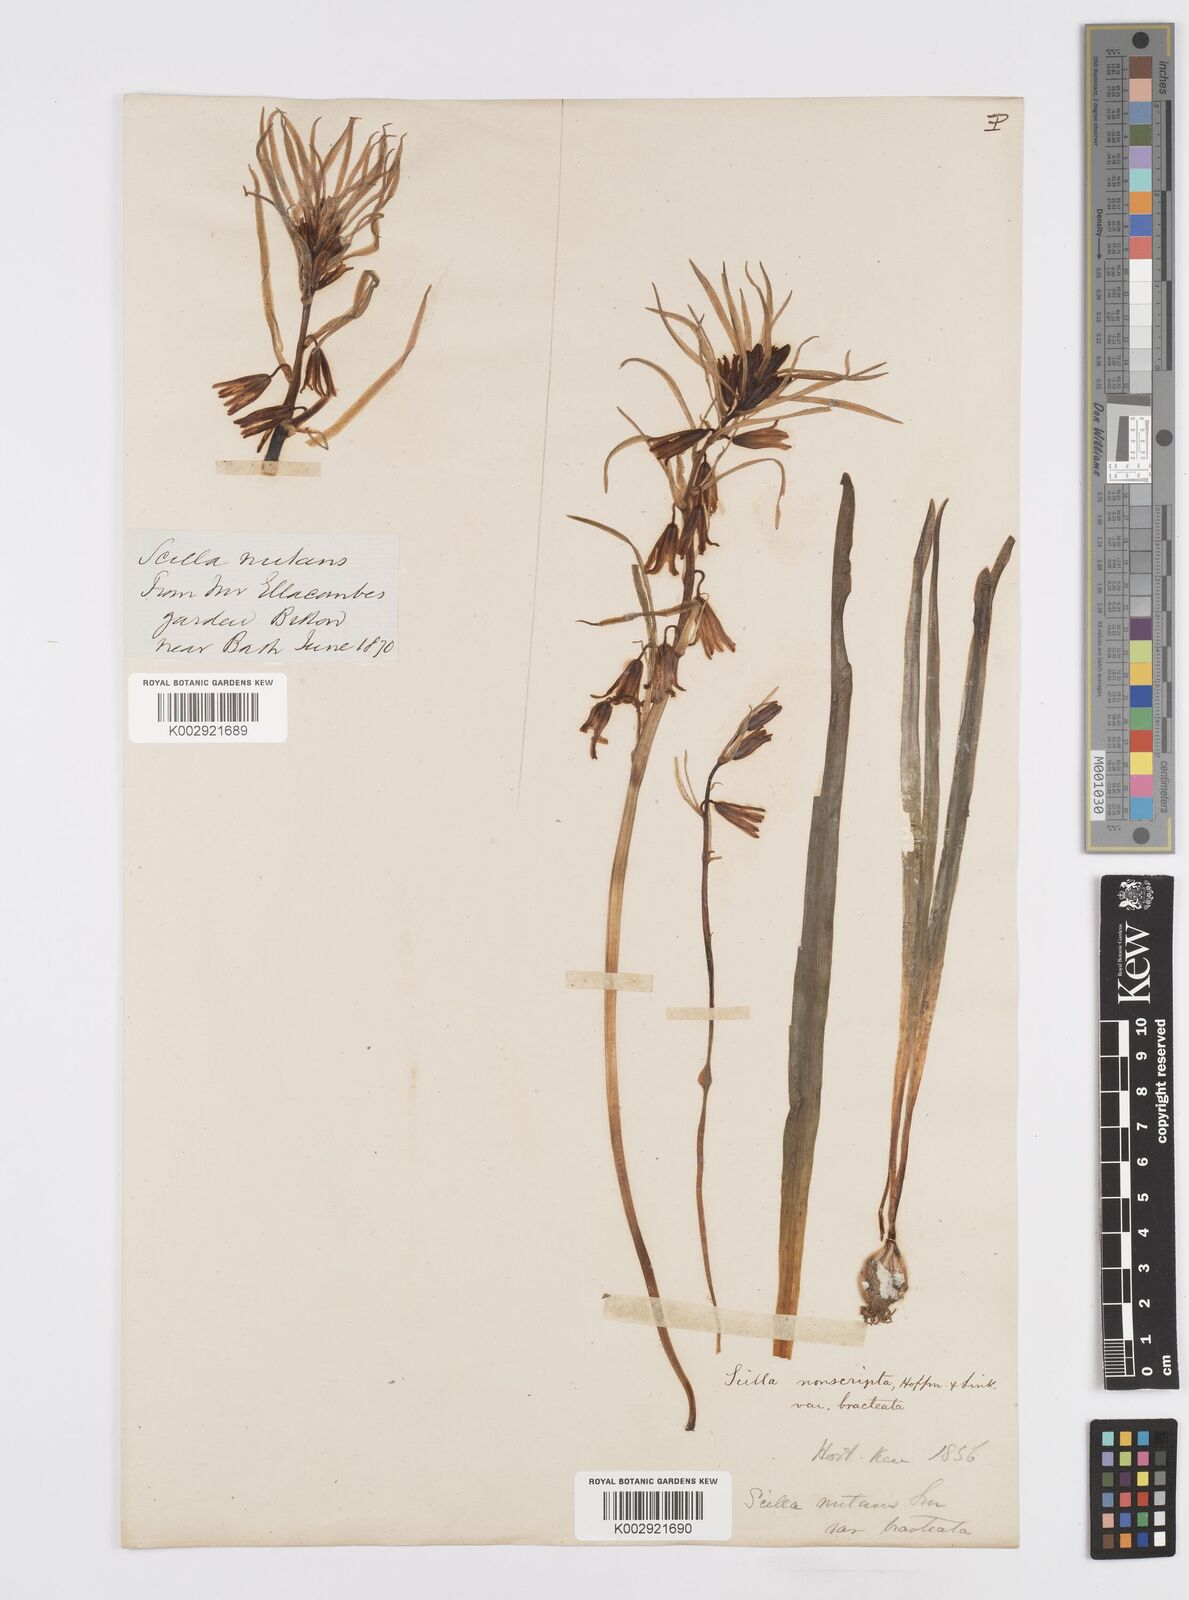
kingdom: Plantae
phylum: Tracheophyta
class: Liliopsida
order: Asparagales
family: Asparagaceae
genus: Hyacinthoides
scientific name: Hyacinthoides
